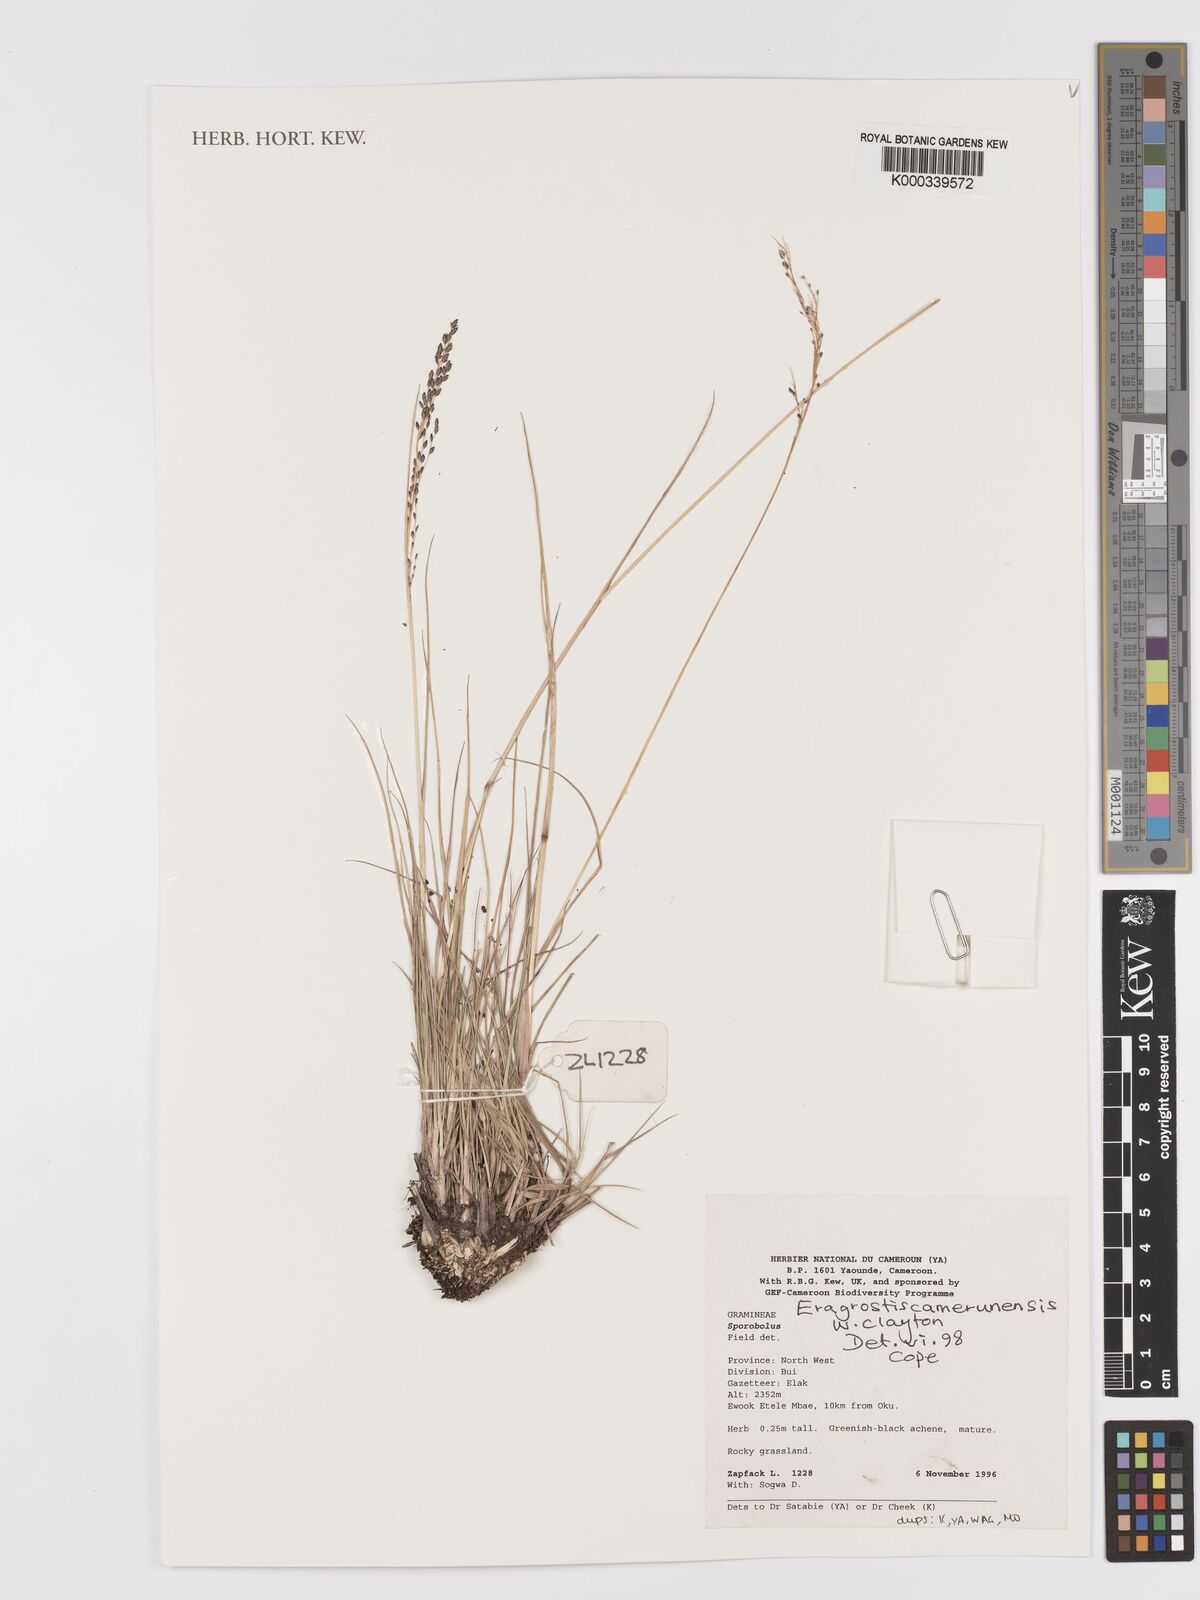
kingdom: Plantae
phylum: Tracheophyta
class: Liliopsida
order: Poales
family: Poaceae
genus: Eragrostis
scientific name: Eragrostis camerunensis
